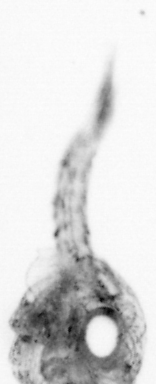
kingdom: Animalia
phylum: Arthropoda
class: Copepoda
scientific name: Copepoda
